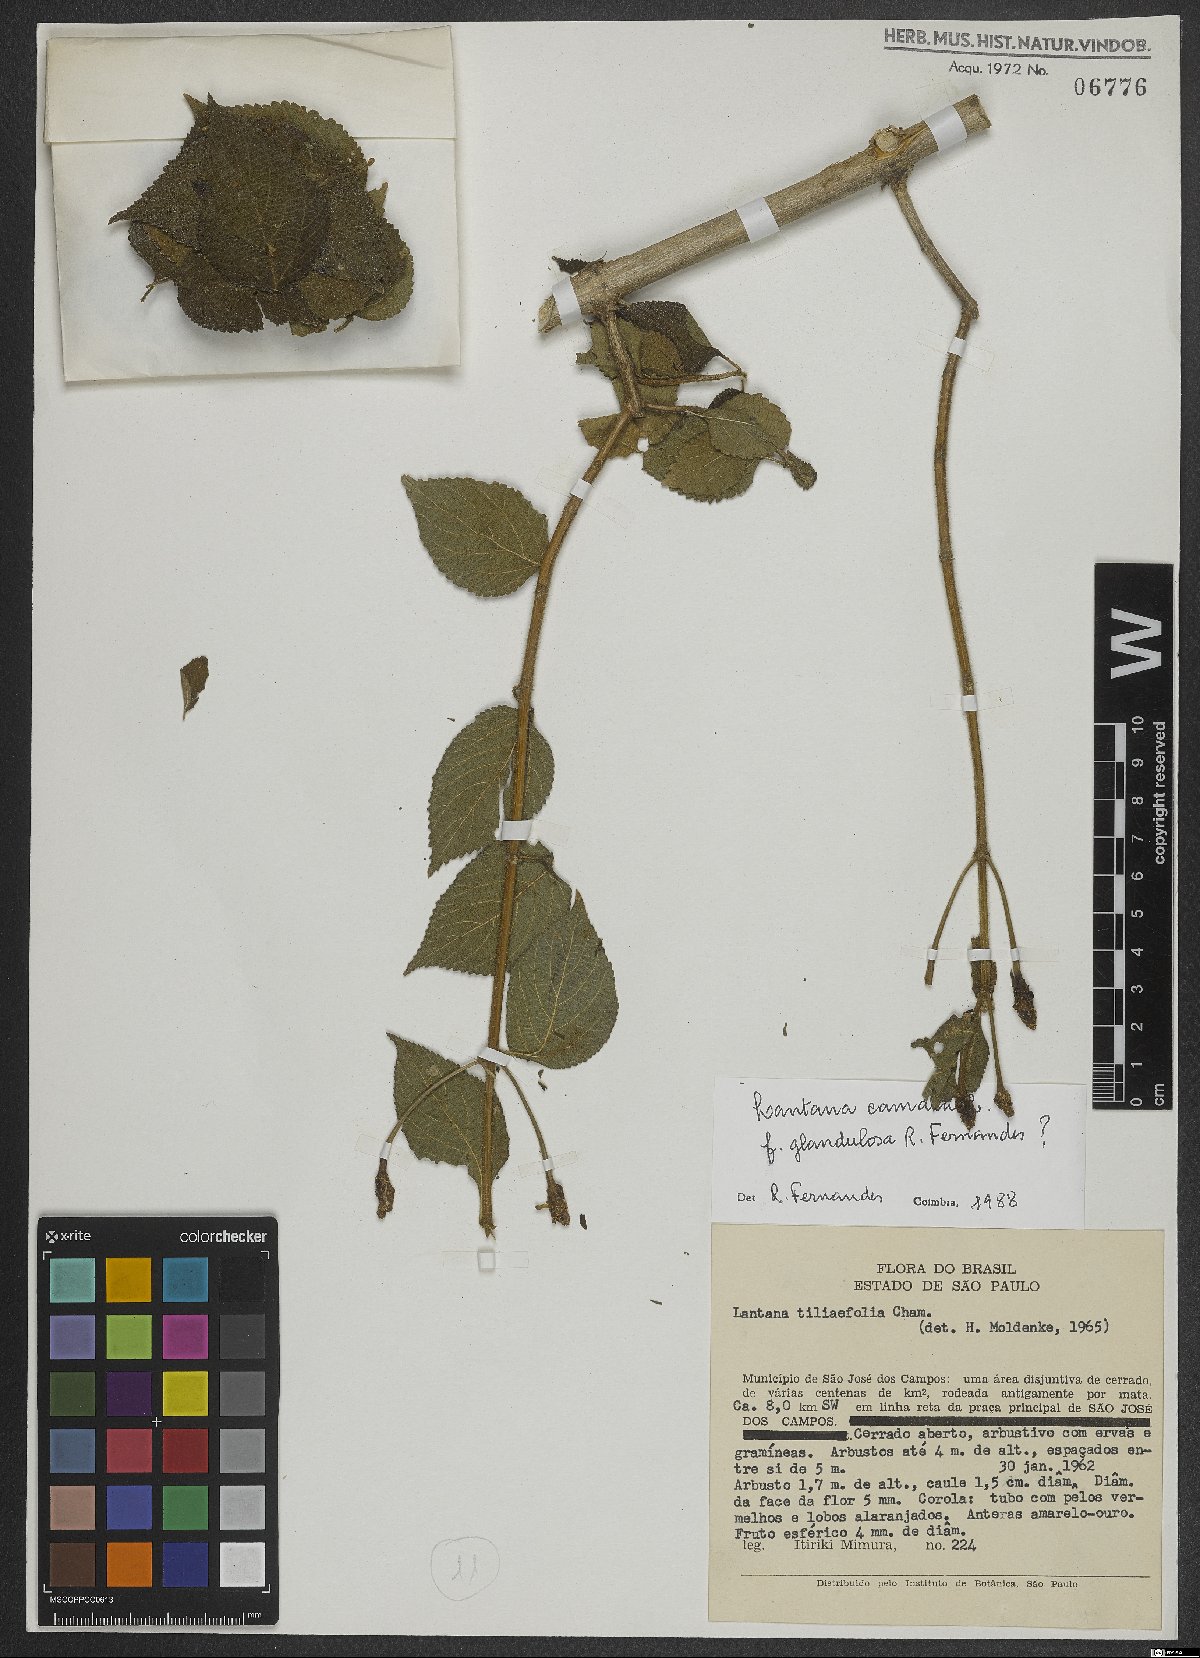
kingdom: Plantae
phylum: Tracheophyta
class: Magnoliopsida
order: Lamiales
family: Verbenaceae
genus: Lantana
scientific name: Lantana camara
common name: Lantana
